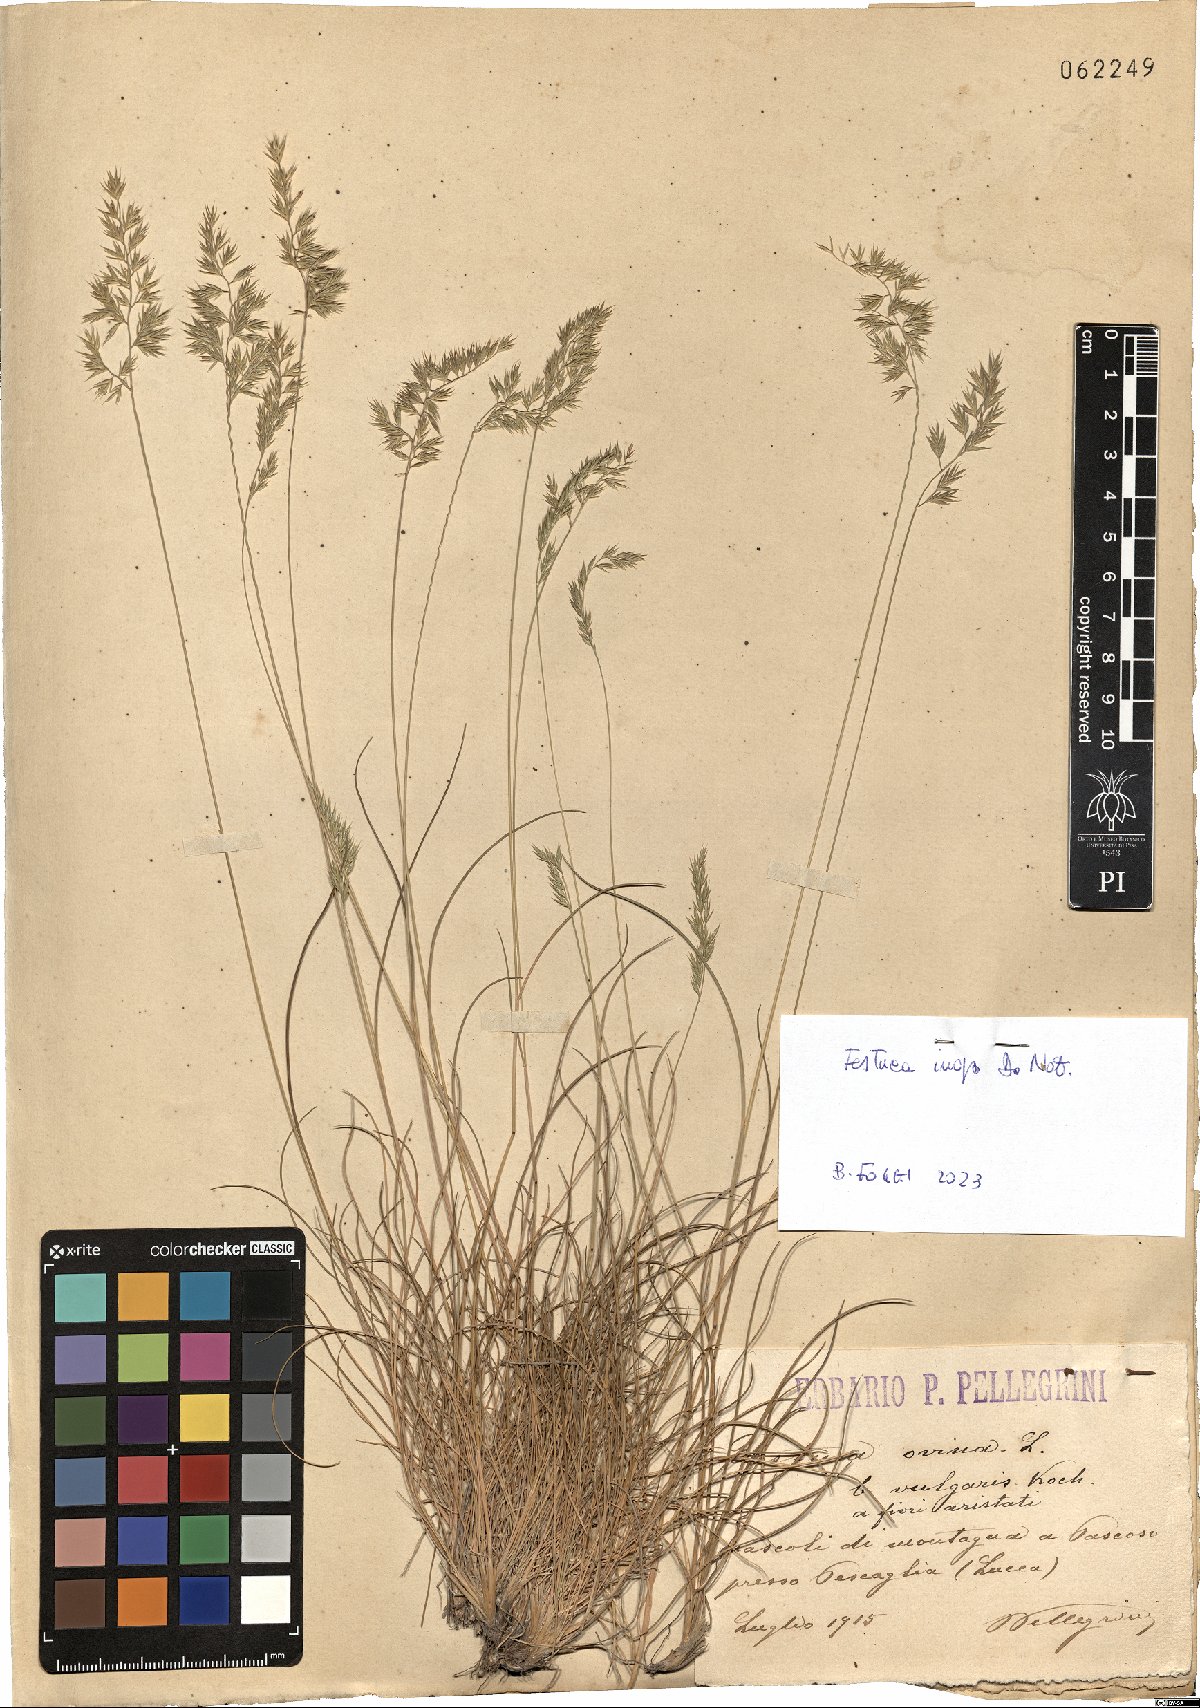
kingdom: Plantae
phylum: Tracheophyta
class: Liliopsida
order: Poales
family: Poaceae
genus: Festuca
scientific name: Festuca inops
